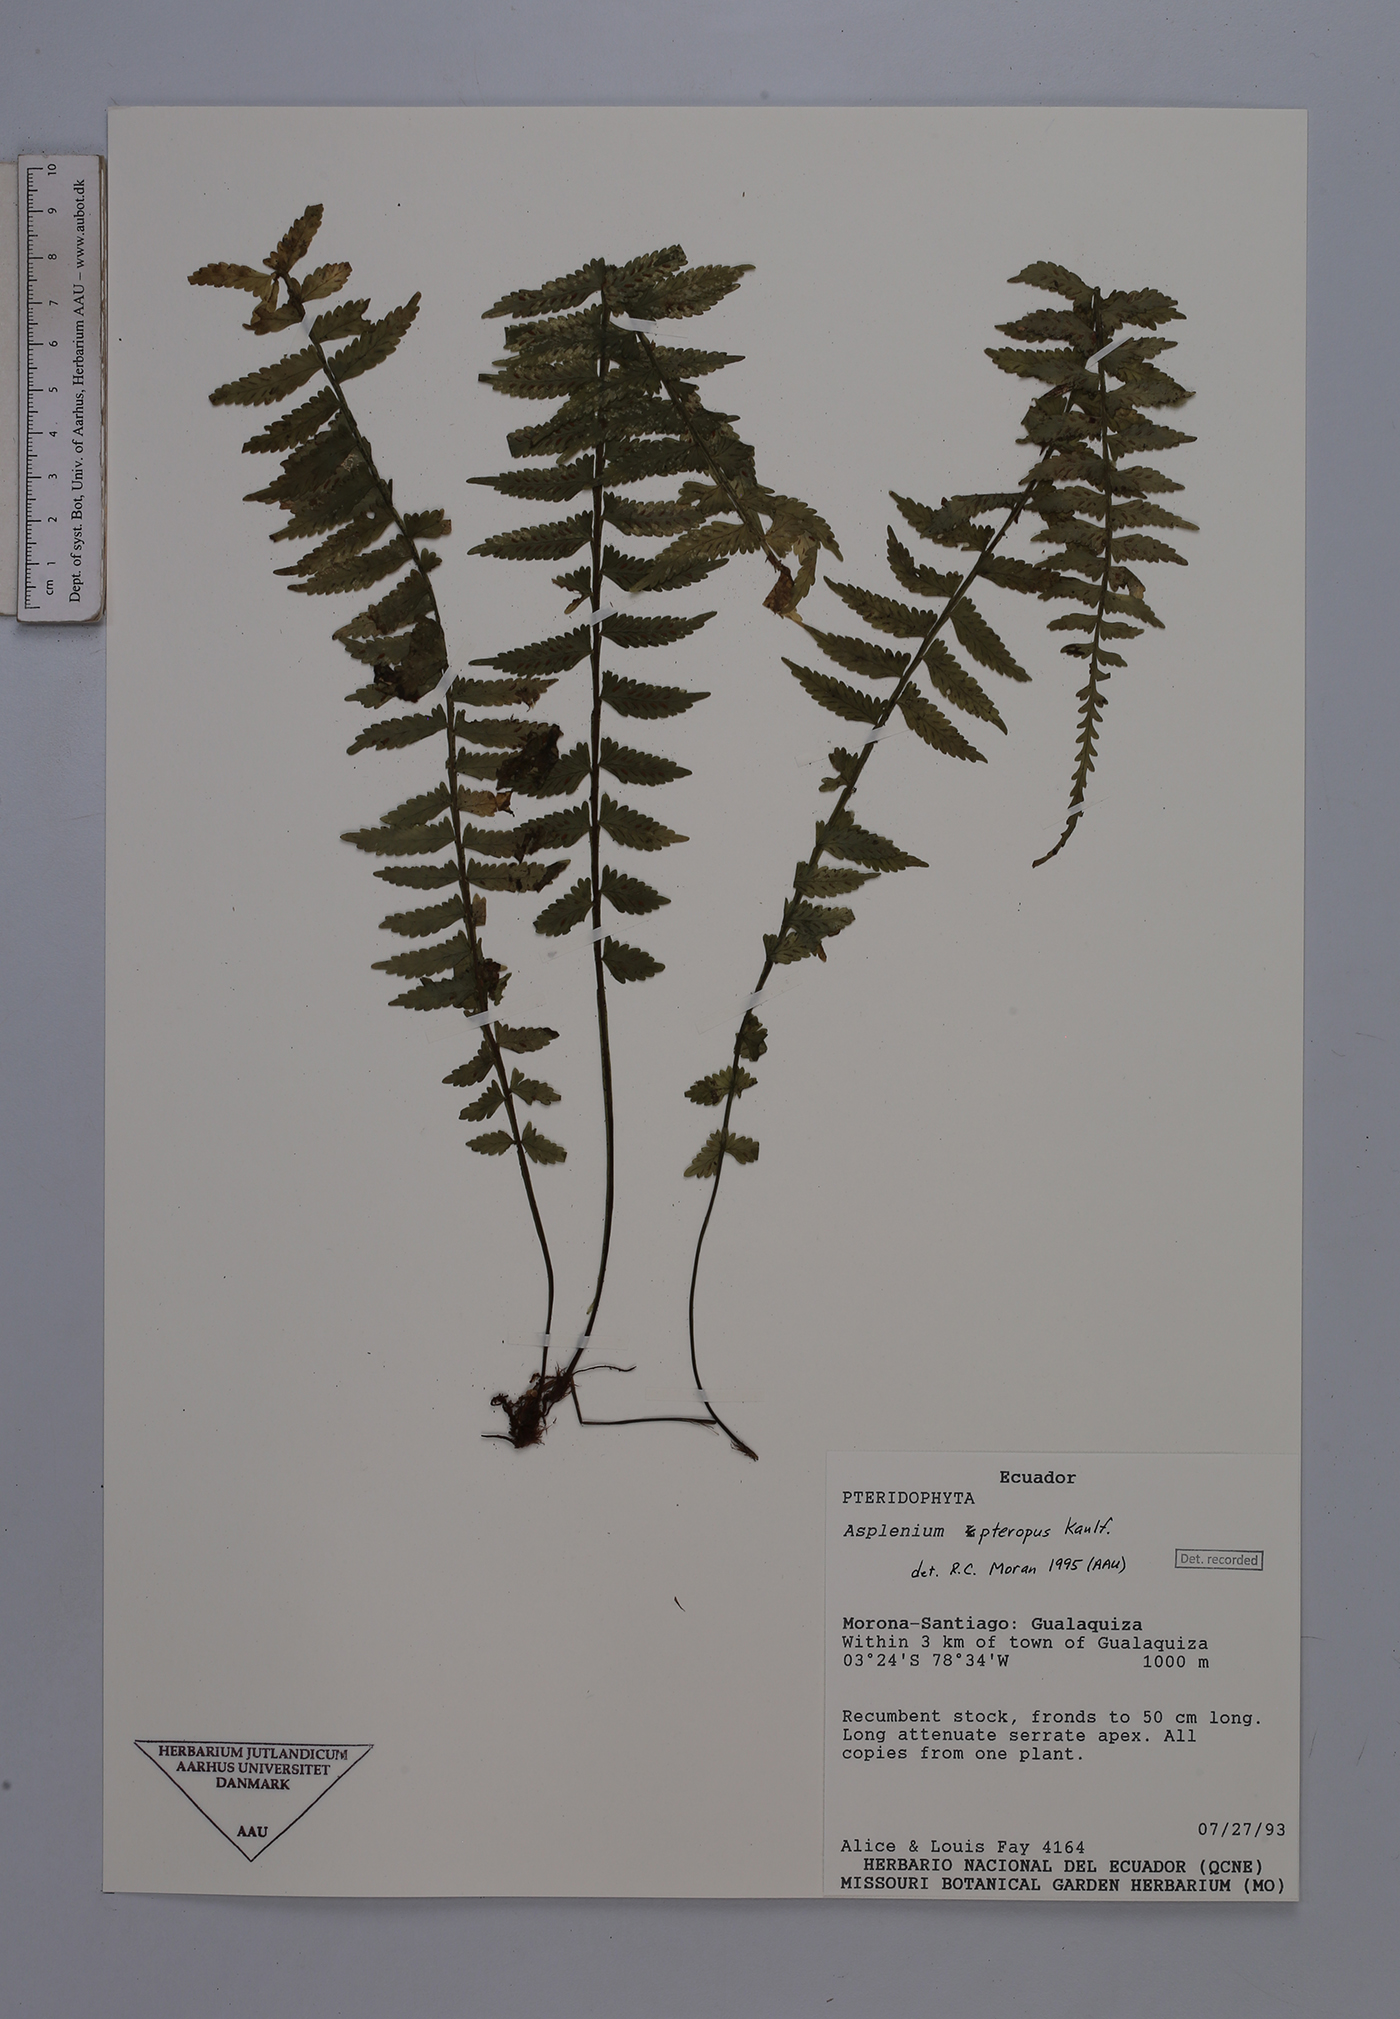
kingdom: Plantae
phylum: Tracheophyta
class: Polypodiopsida
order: Polypodiales
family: Aspleniaceae
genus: Asplenium
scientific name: Asplenium pteropus
